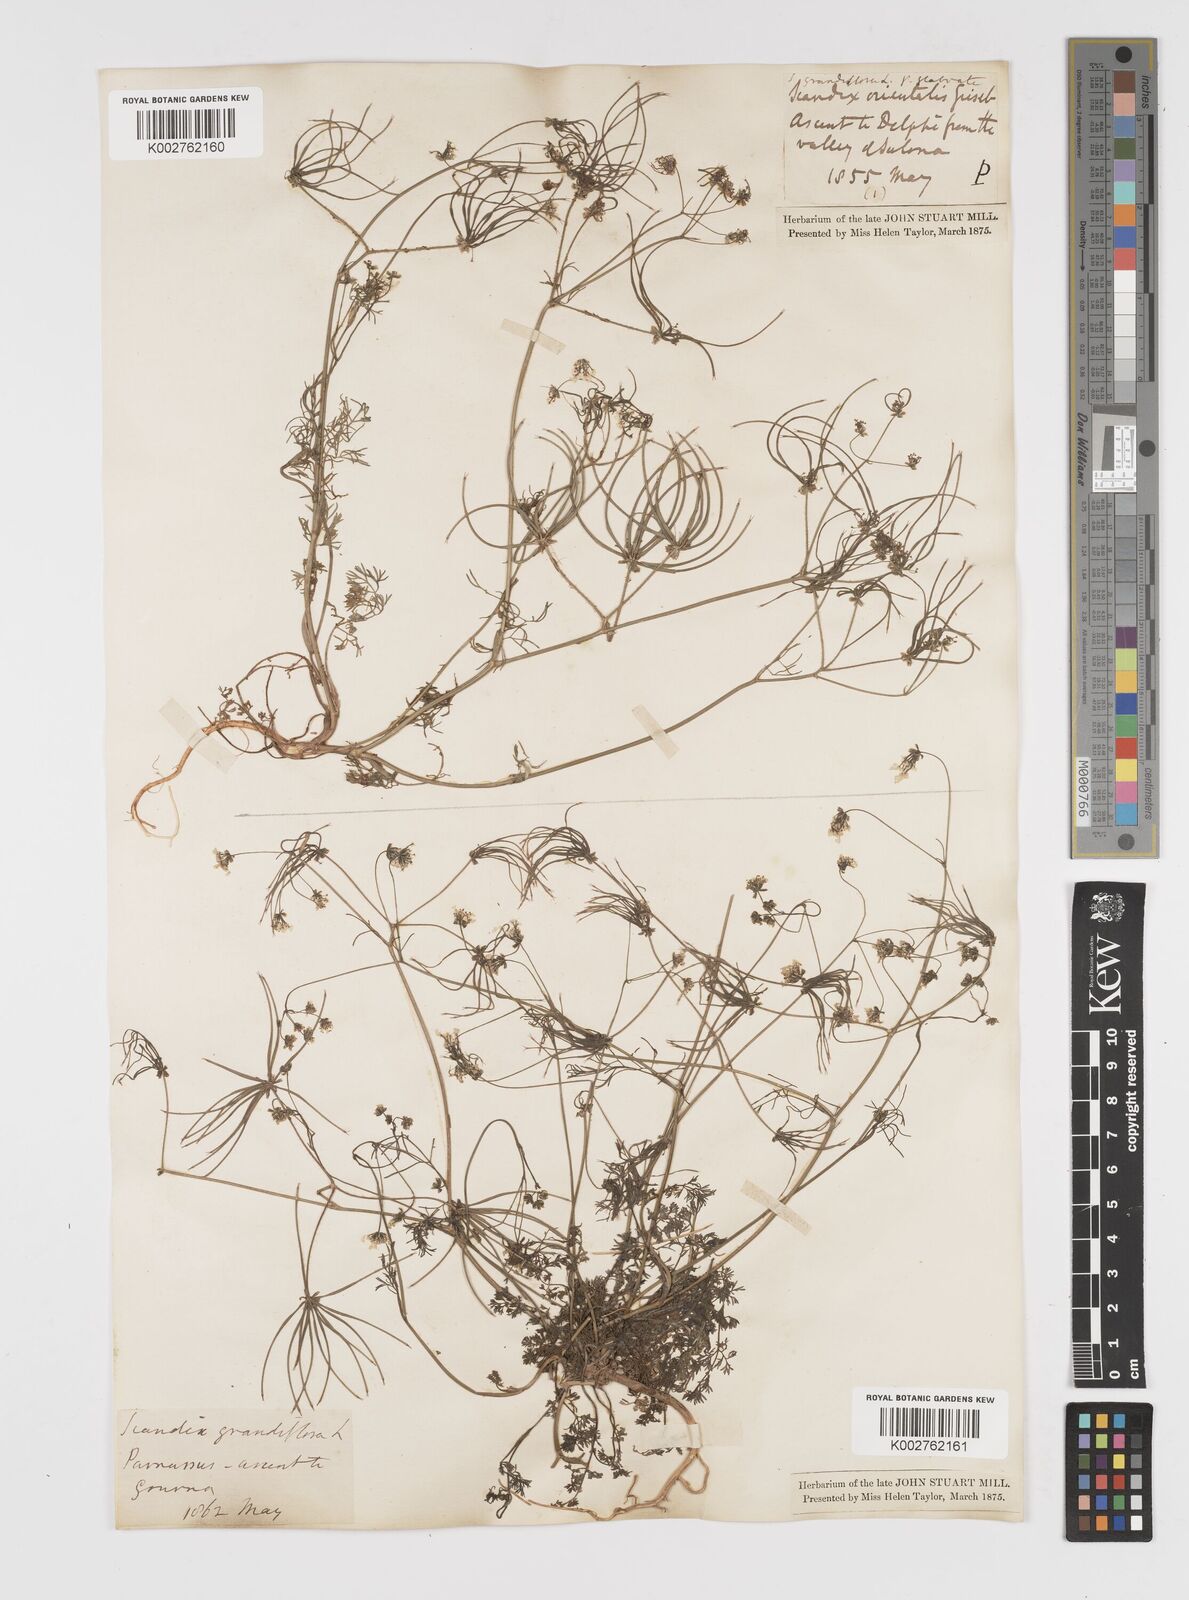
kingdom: Plantae
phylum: Tracheophyta
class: Magnoliopsida
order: Apiales
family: Apiaceae
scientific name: Apiaceae
